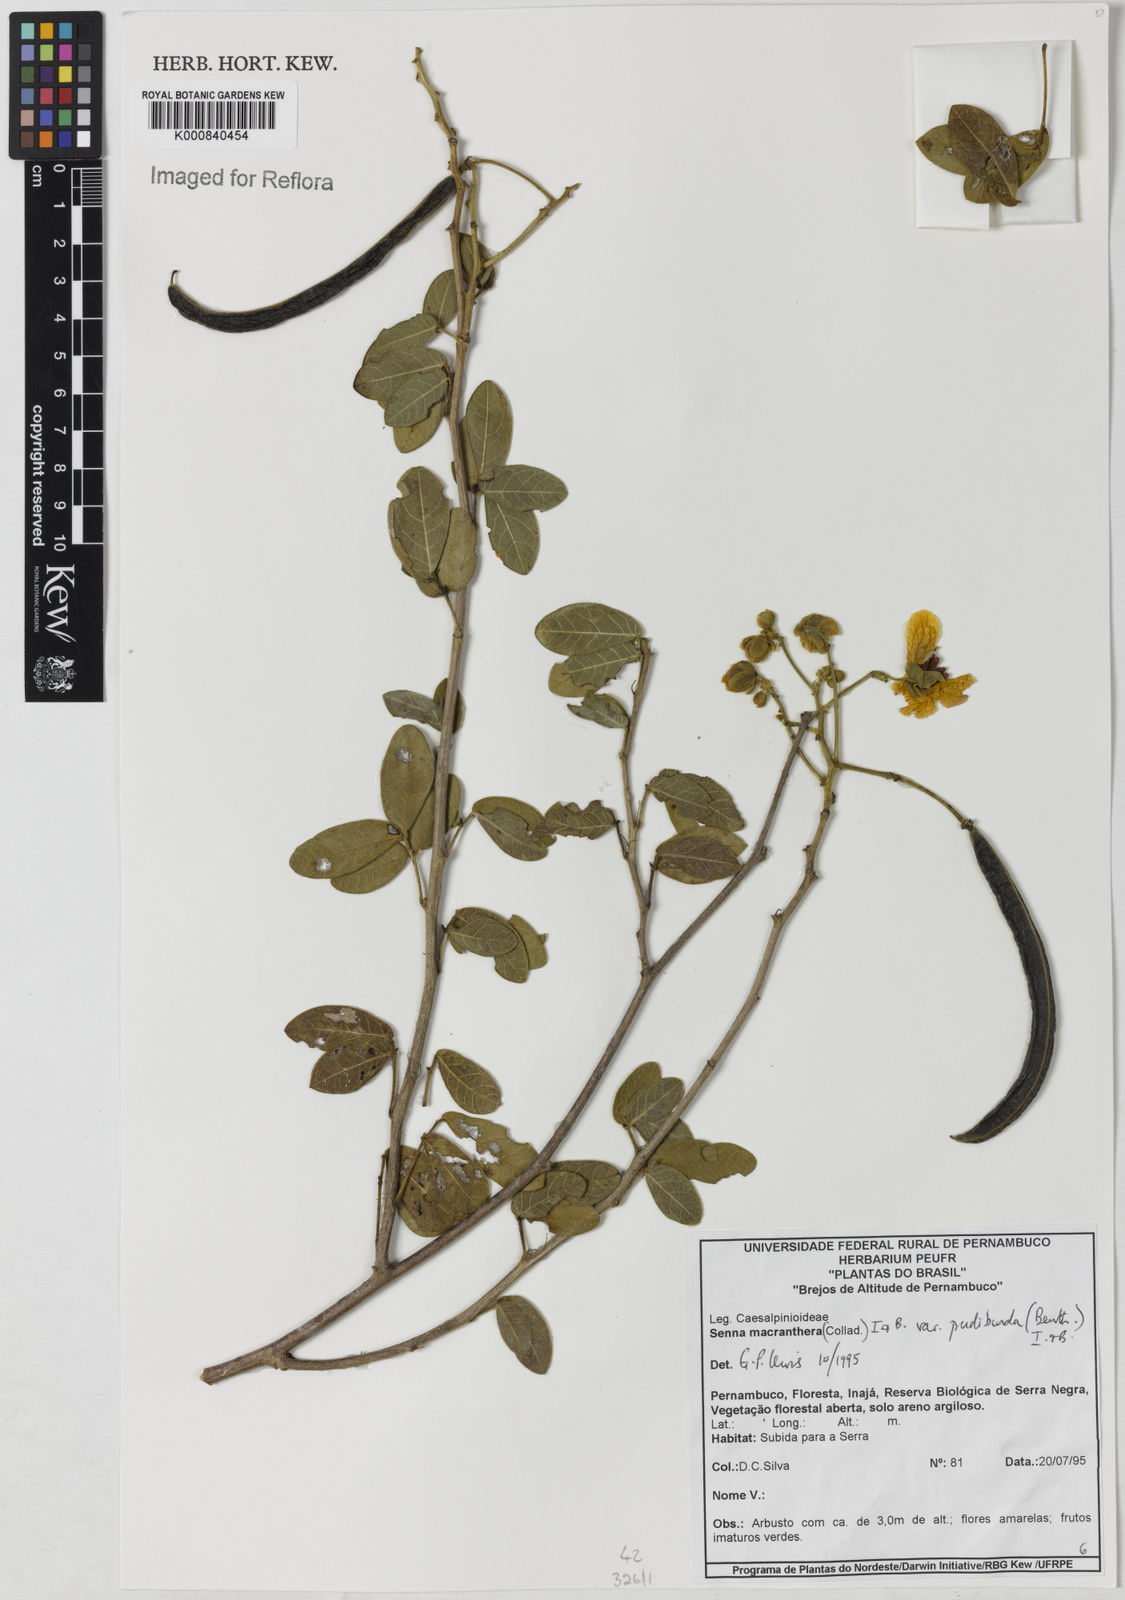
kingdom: Plantae
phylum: Tracheophyta
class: Magnoliopsida
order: Fabales
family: Fabaceae
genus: Senna
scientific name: Senna macranthera
